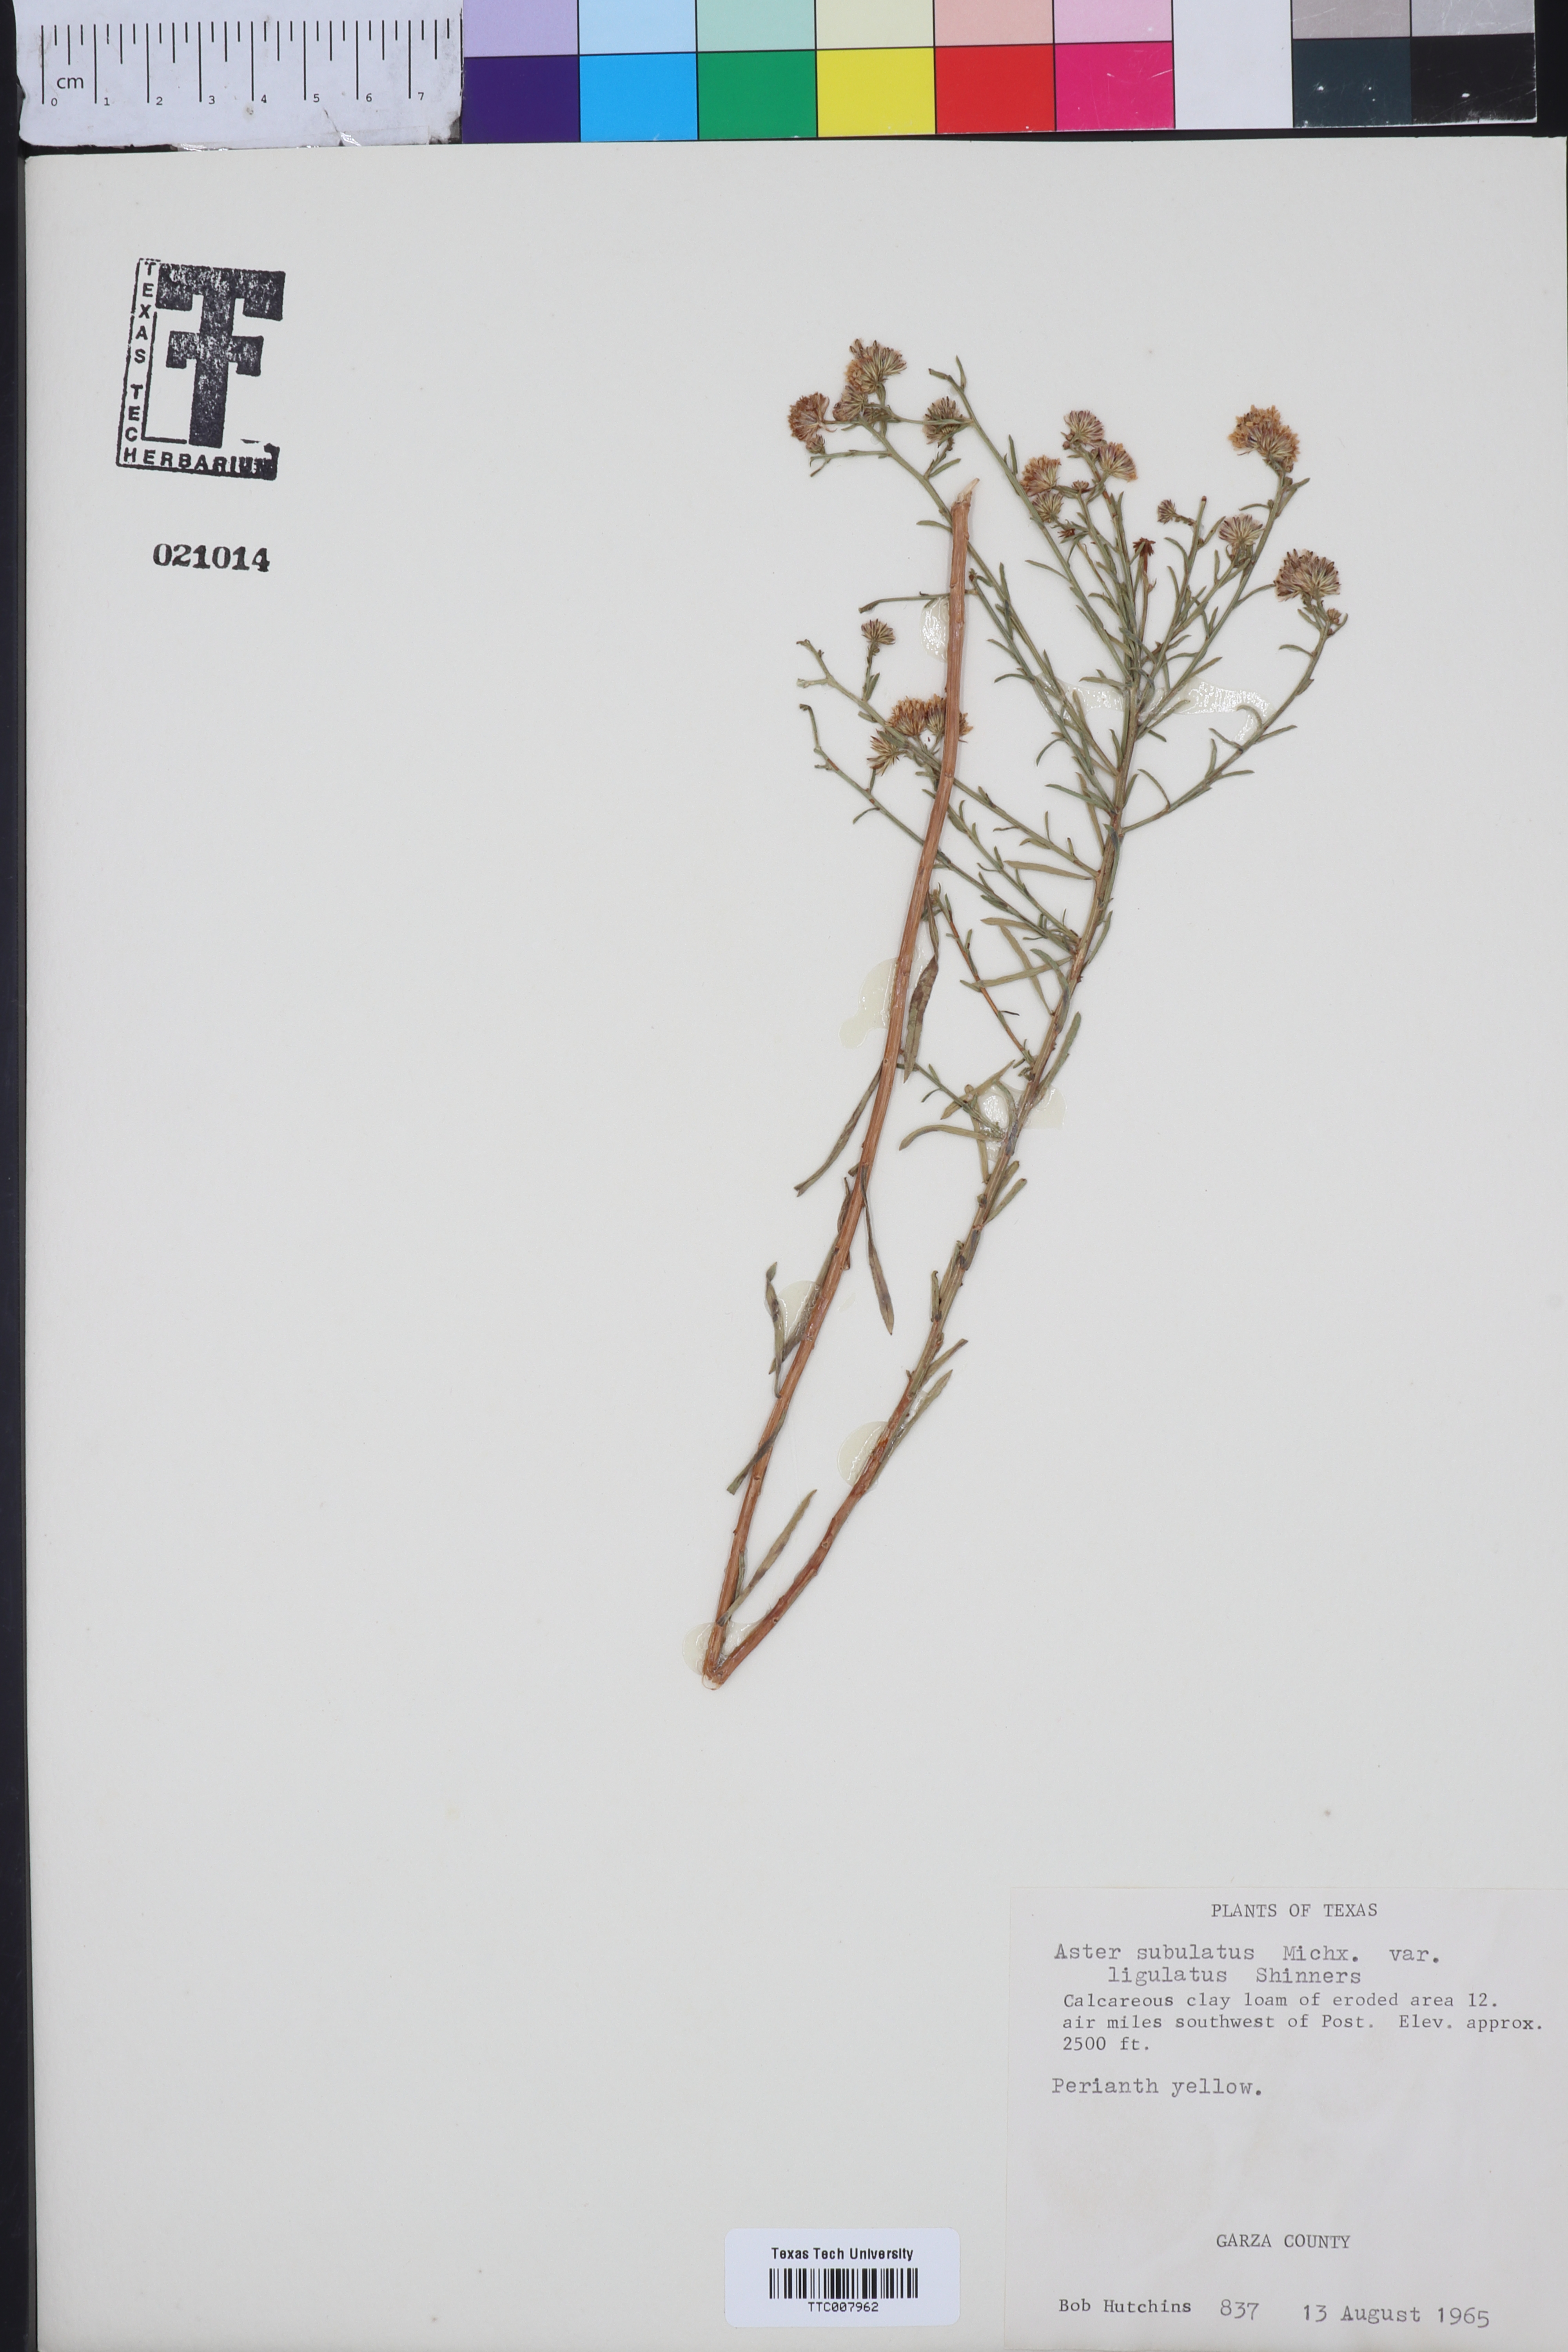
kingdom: Plantae
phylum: Tracheophyta
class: Magnoliopsida
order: Asterales
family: Asteraceae
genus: Symphyotrichum
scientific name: Symphyotrichum divaricatum
